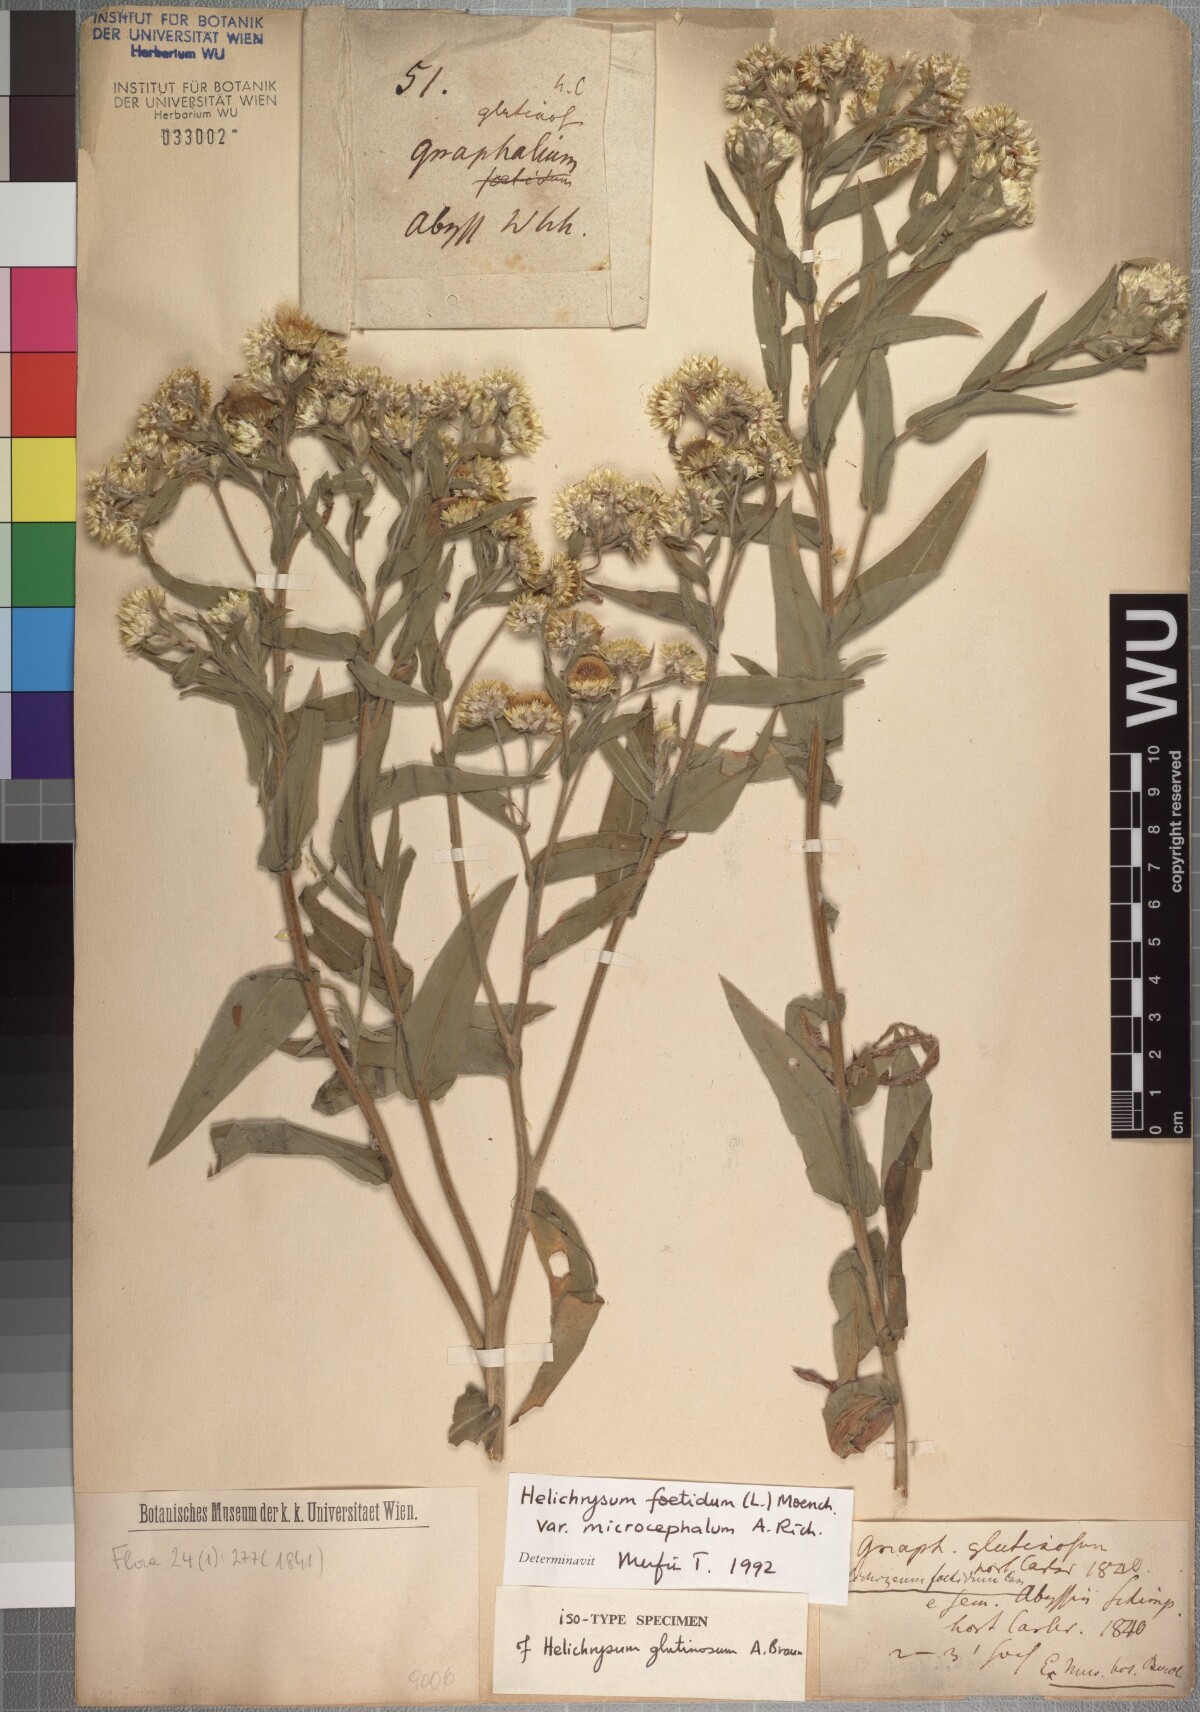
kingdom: Plantae
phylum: Tracheophyta
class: Magnoliopsida
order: Asterales
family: Asteraceae
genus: Helichrysum
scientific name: Helichrysum foetidum
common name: Stinking everlasting
